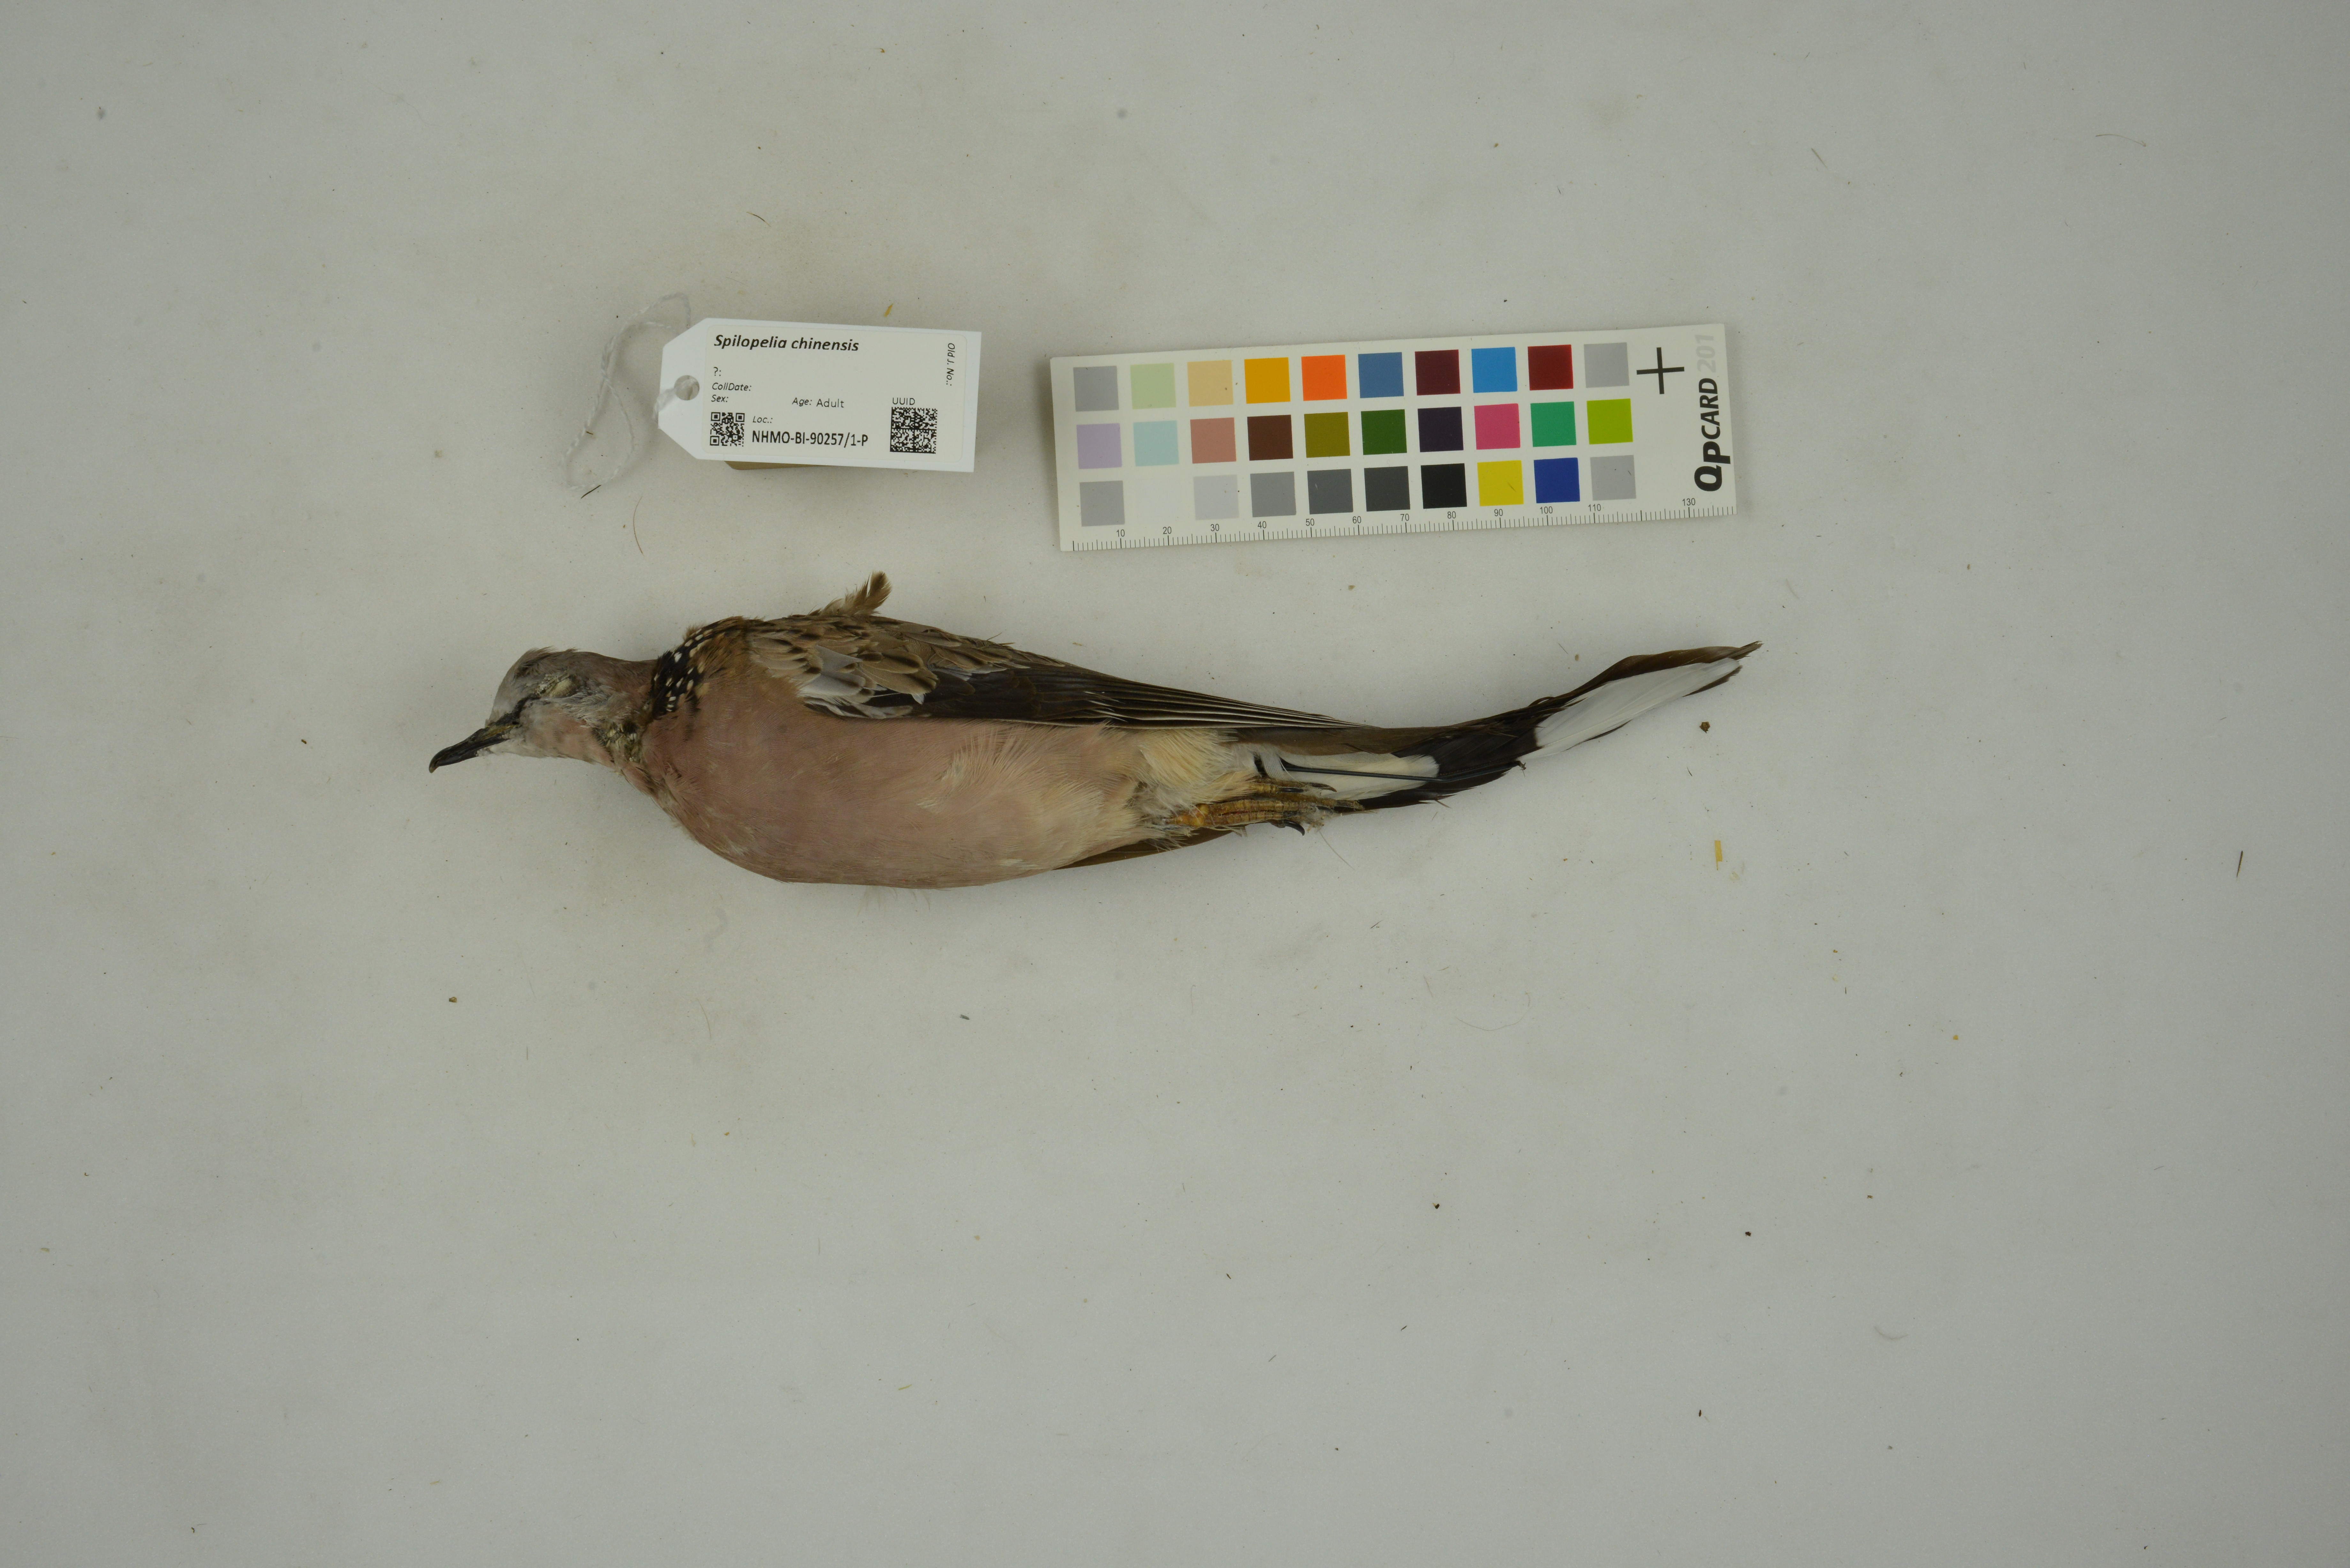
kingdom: Animalia
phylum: Chordata
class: Aves
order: Columbiformes
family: Columbidae
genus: Spilopelia
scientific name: Spilopelia chinensis
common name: Spotted dove
